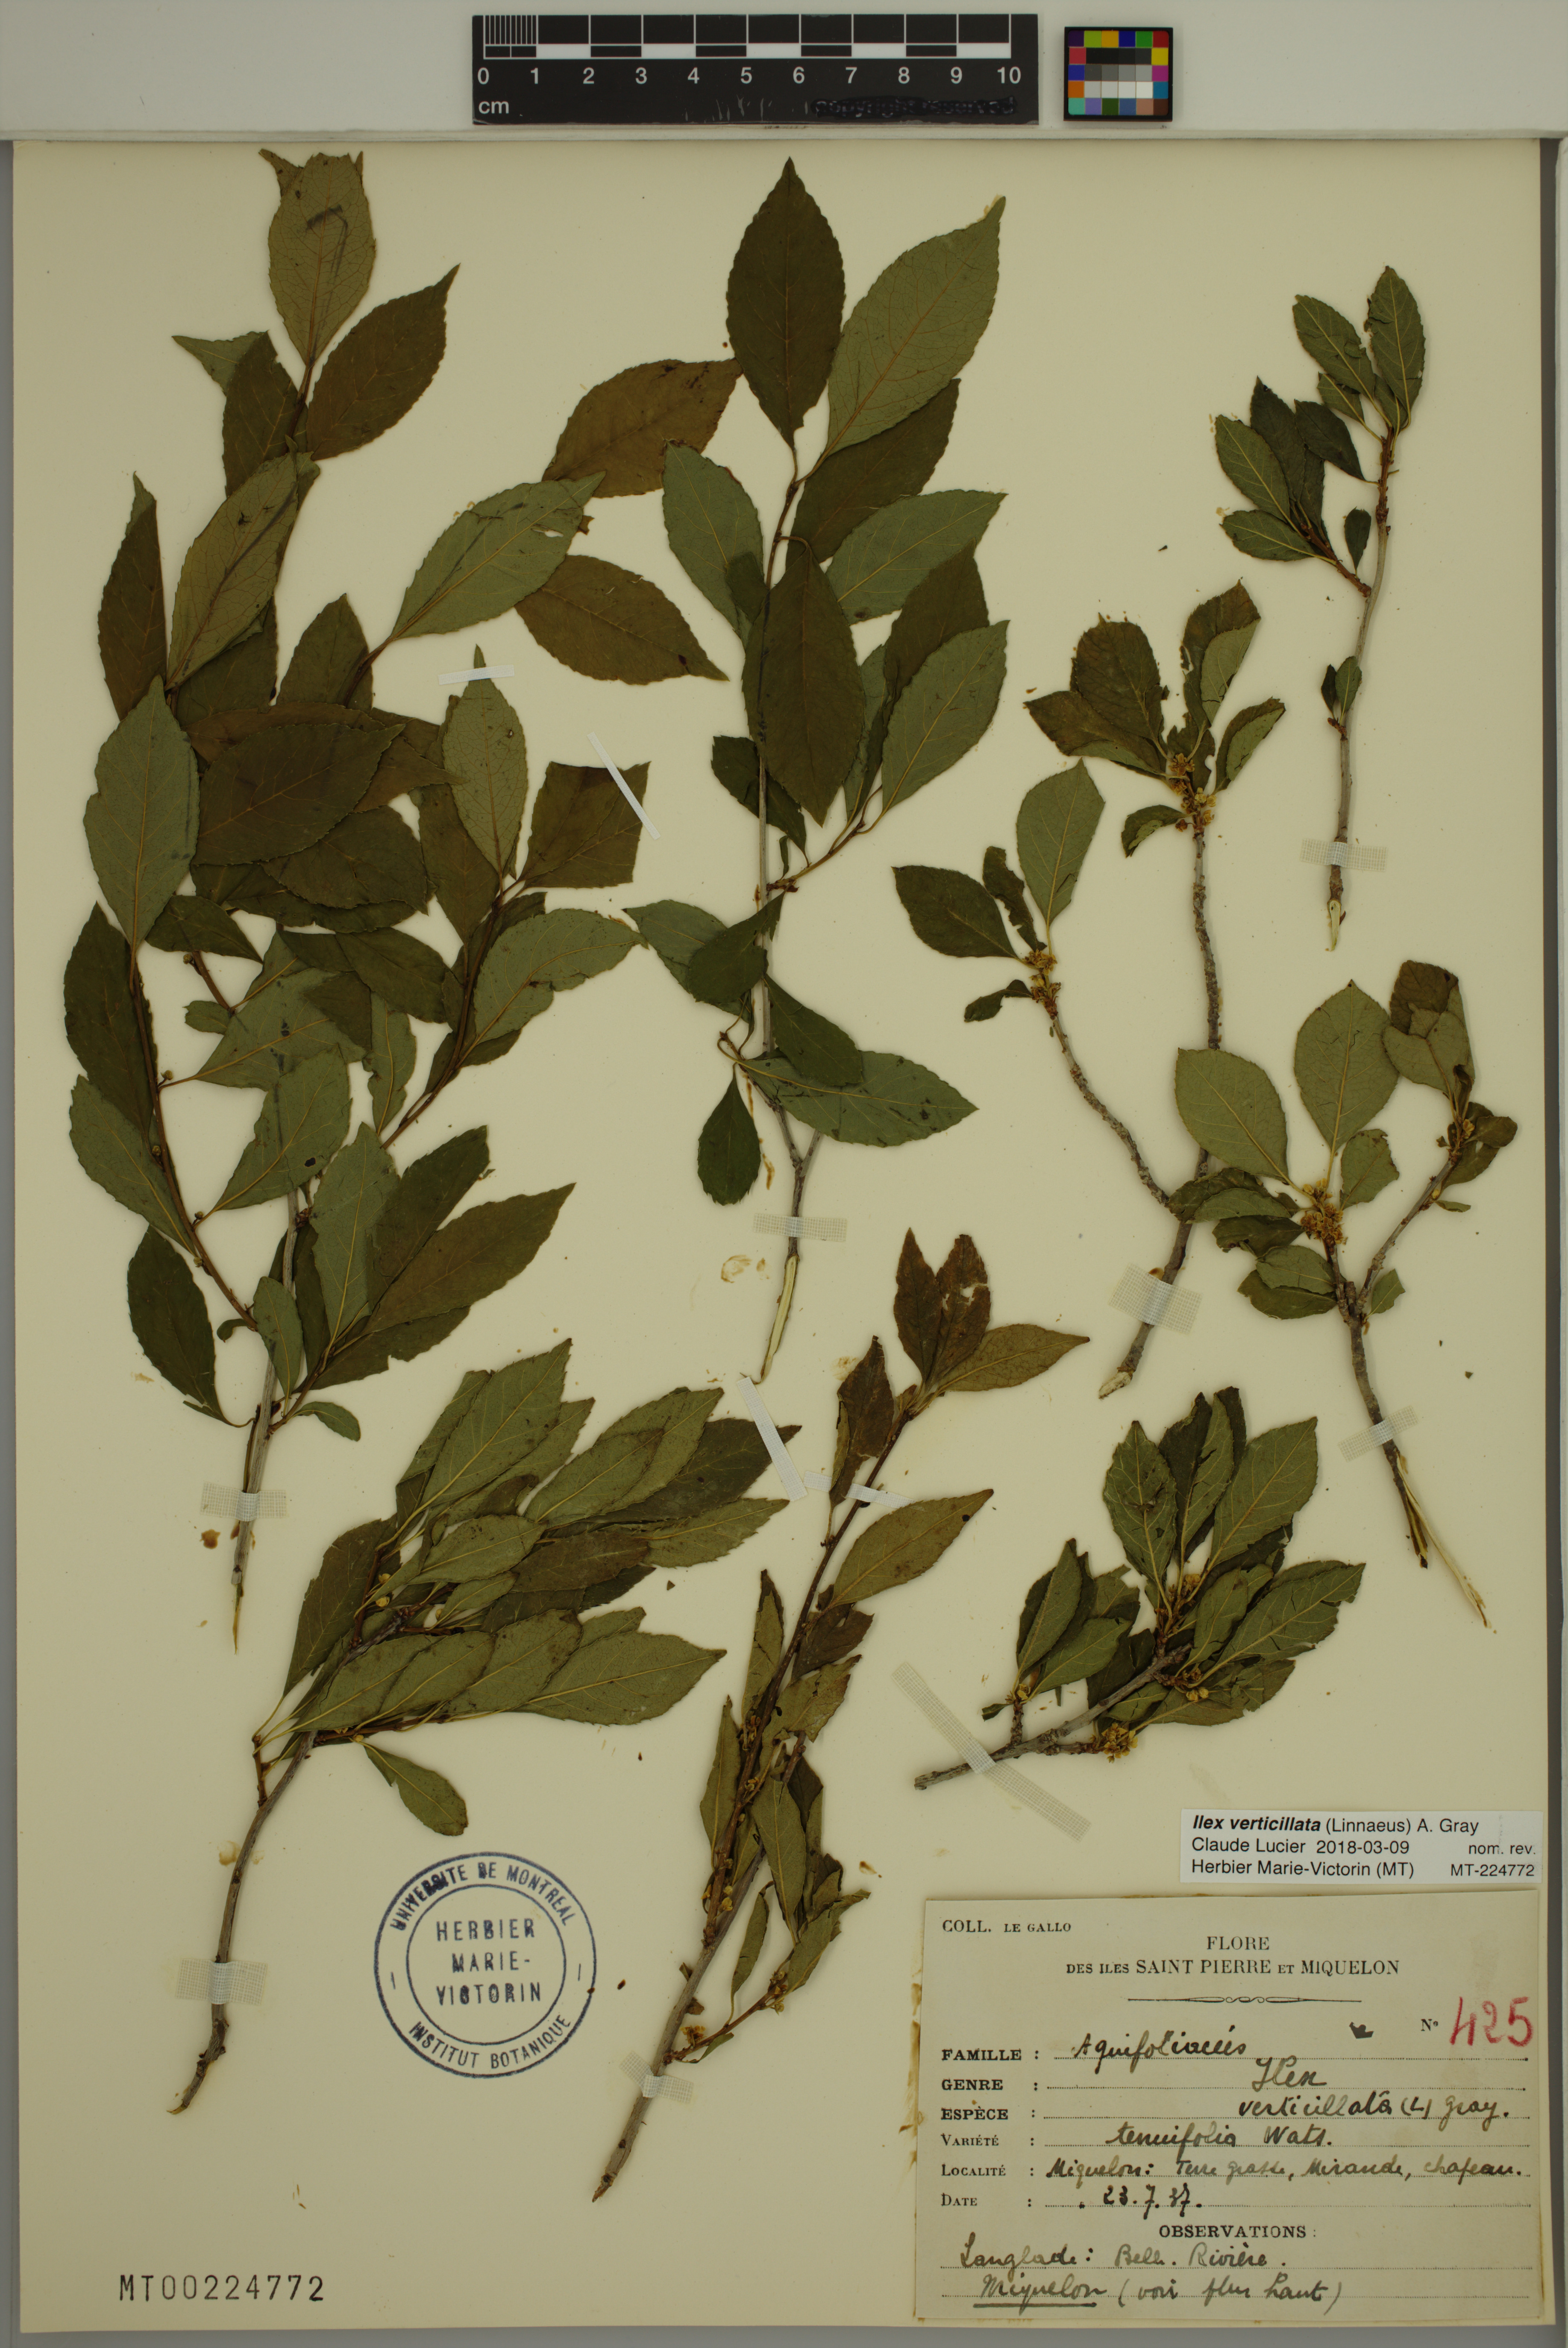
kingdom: Plantae
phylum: Tracheophyta
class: Magnoliopsida
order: Aquifoliales
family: Aquifoliaceae
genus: Ilex
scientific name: Ilex verticillata
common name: Virginia winterberry
